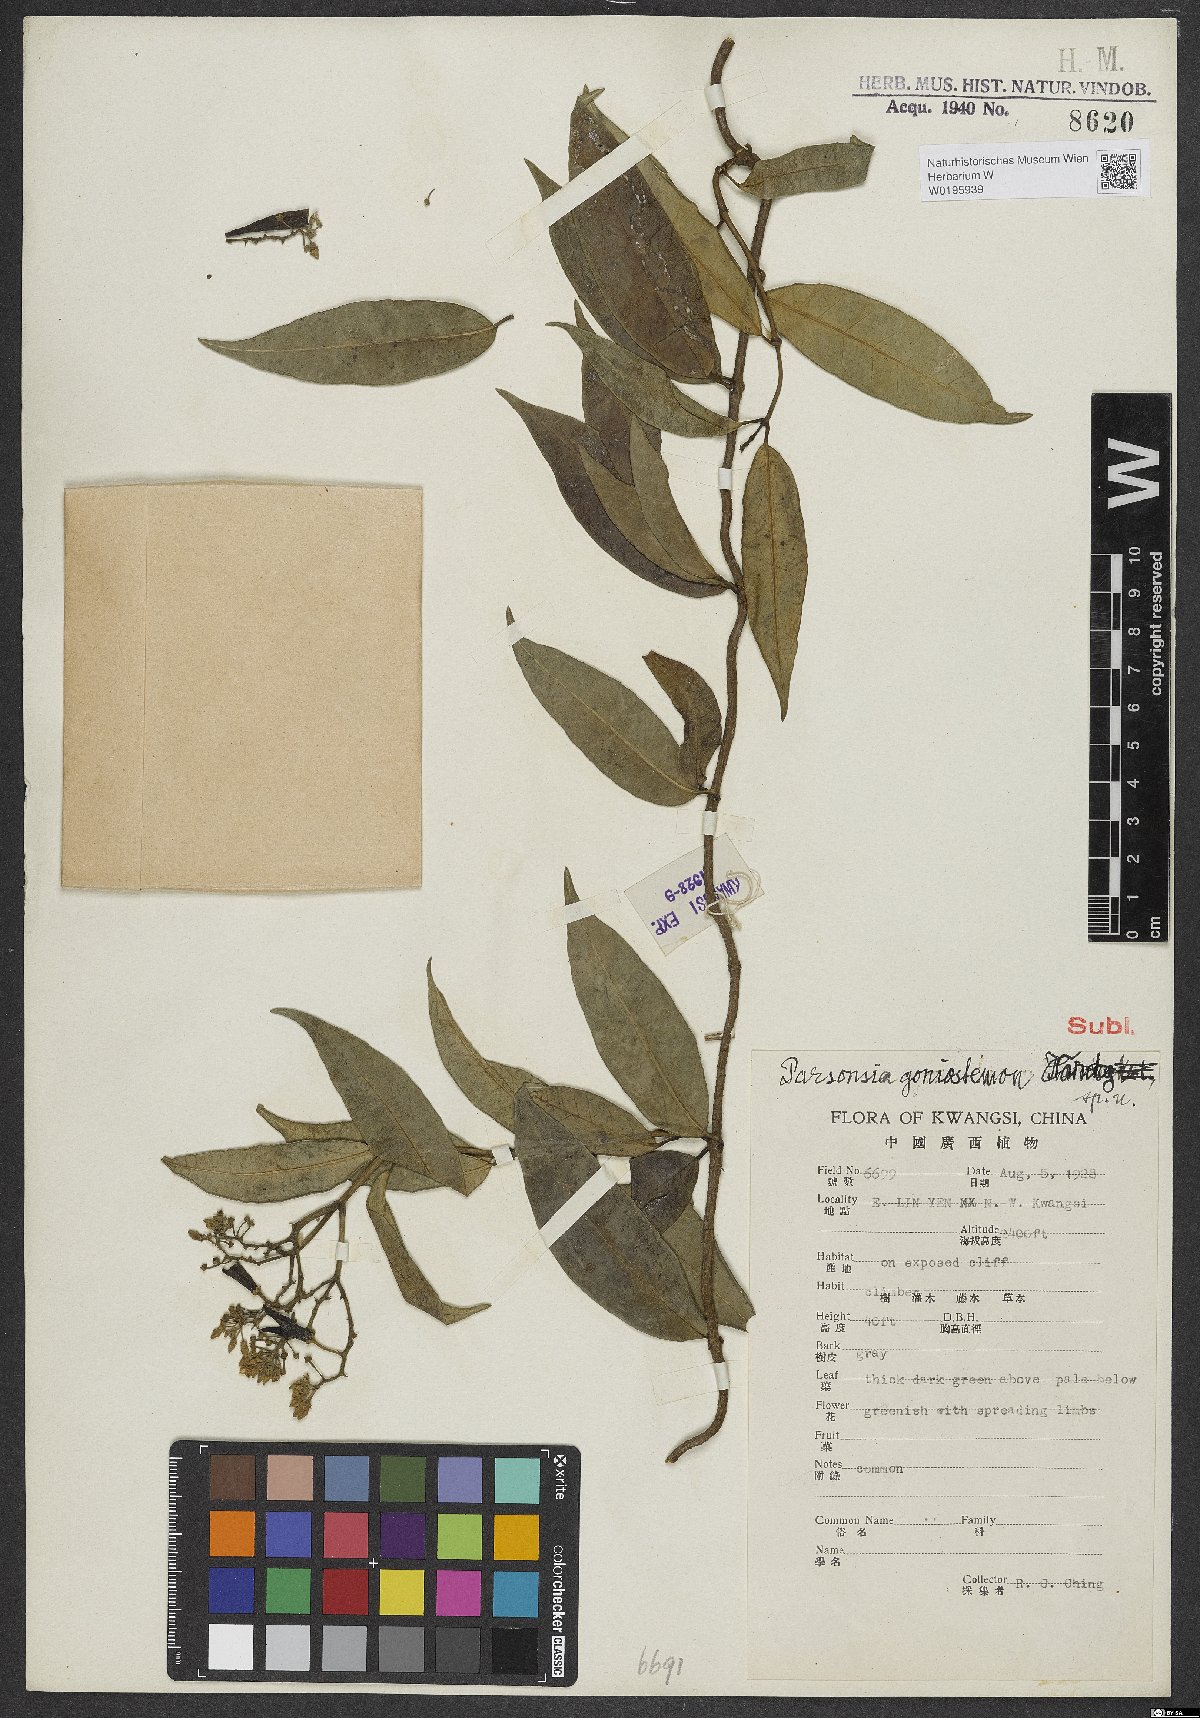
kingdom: Plantae
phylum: Tracheophyta
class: Magnoliopsida
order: Gentianales
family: Apocynaceae
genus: Parsonsia
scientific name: Parsonsia goniostemon
